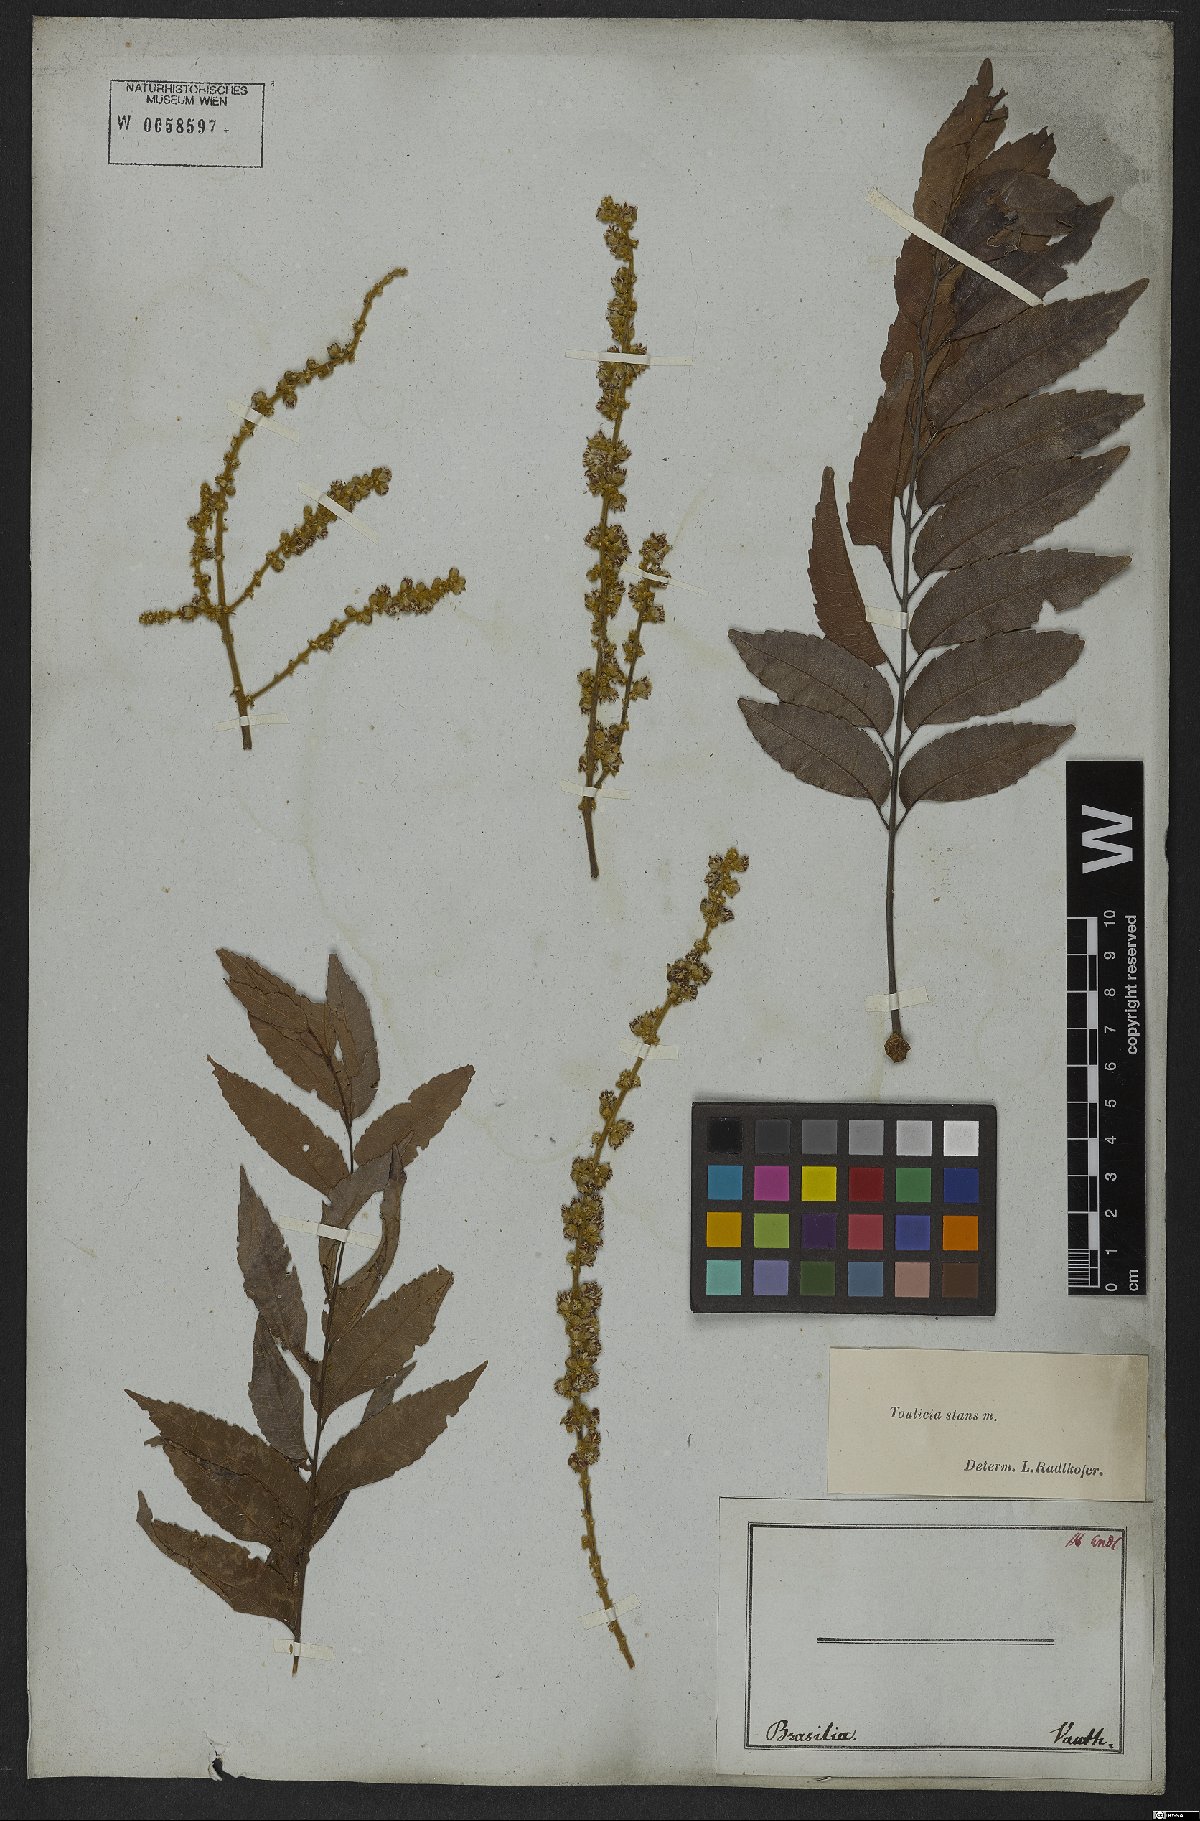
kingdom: Plantae
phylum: Tracheophyta
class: Magnoliopsida
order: Sapindales
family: Sapindaceae
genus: Toulicia
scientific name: Toulicia stans
